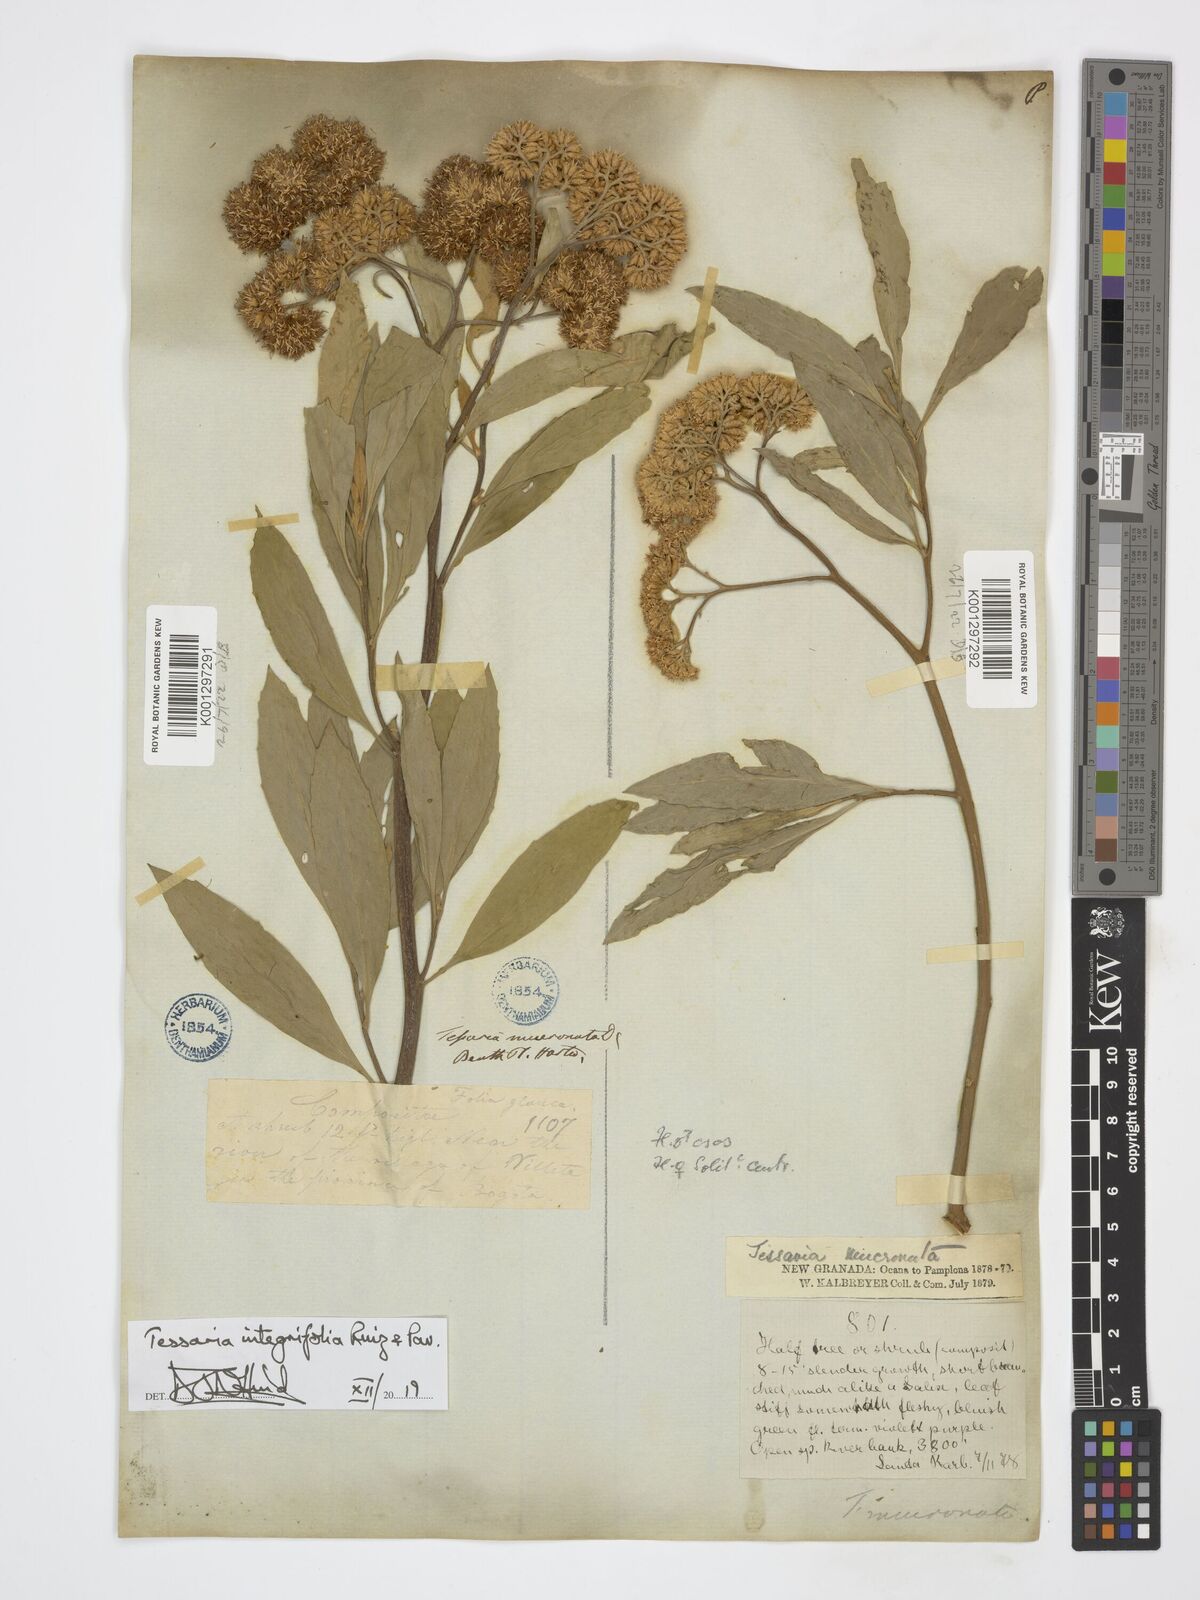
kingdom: Plantae
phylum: Tracheophyta
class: Magnoliopsida
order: Asterales
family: Asteraceae
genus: Tessaria
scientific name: Tessaria integrifolia
